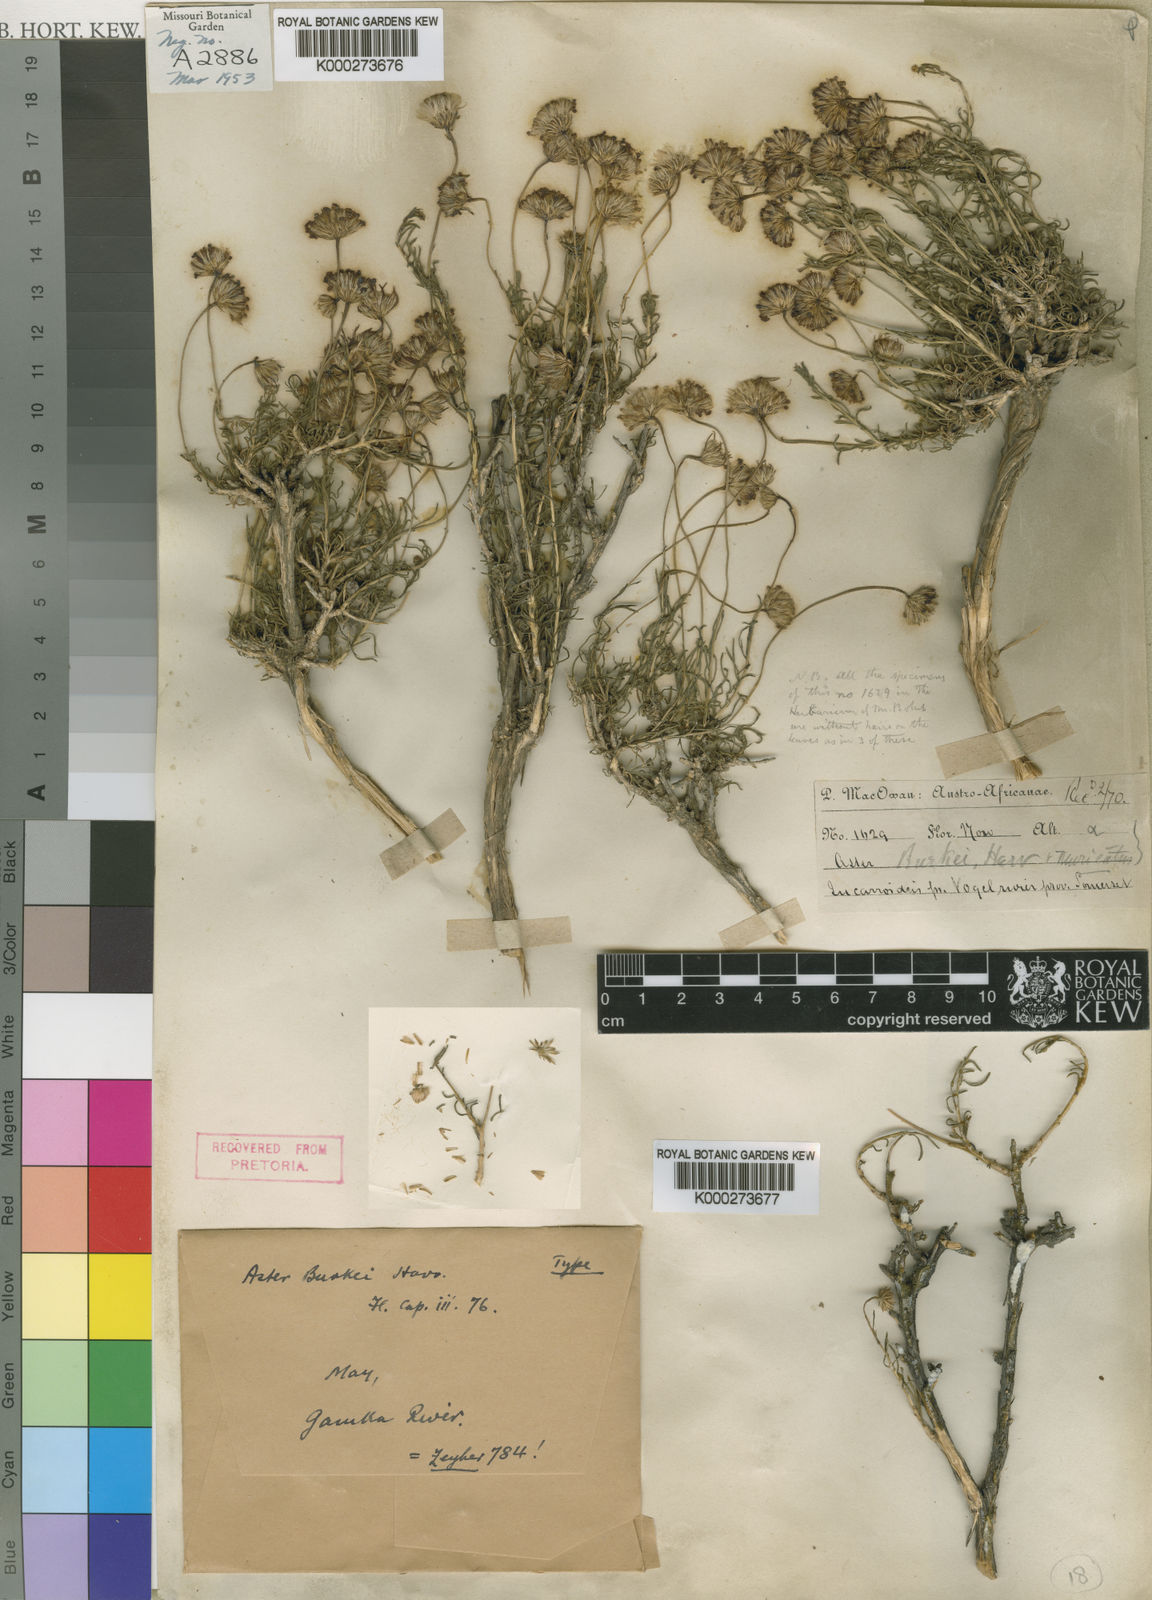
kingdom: Plantae
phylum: Tracheophyta
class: Magnoliopsida
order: Asterales
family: Asteraceae
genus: Felicia
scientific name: Felicia burkei
